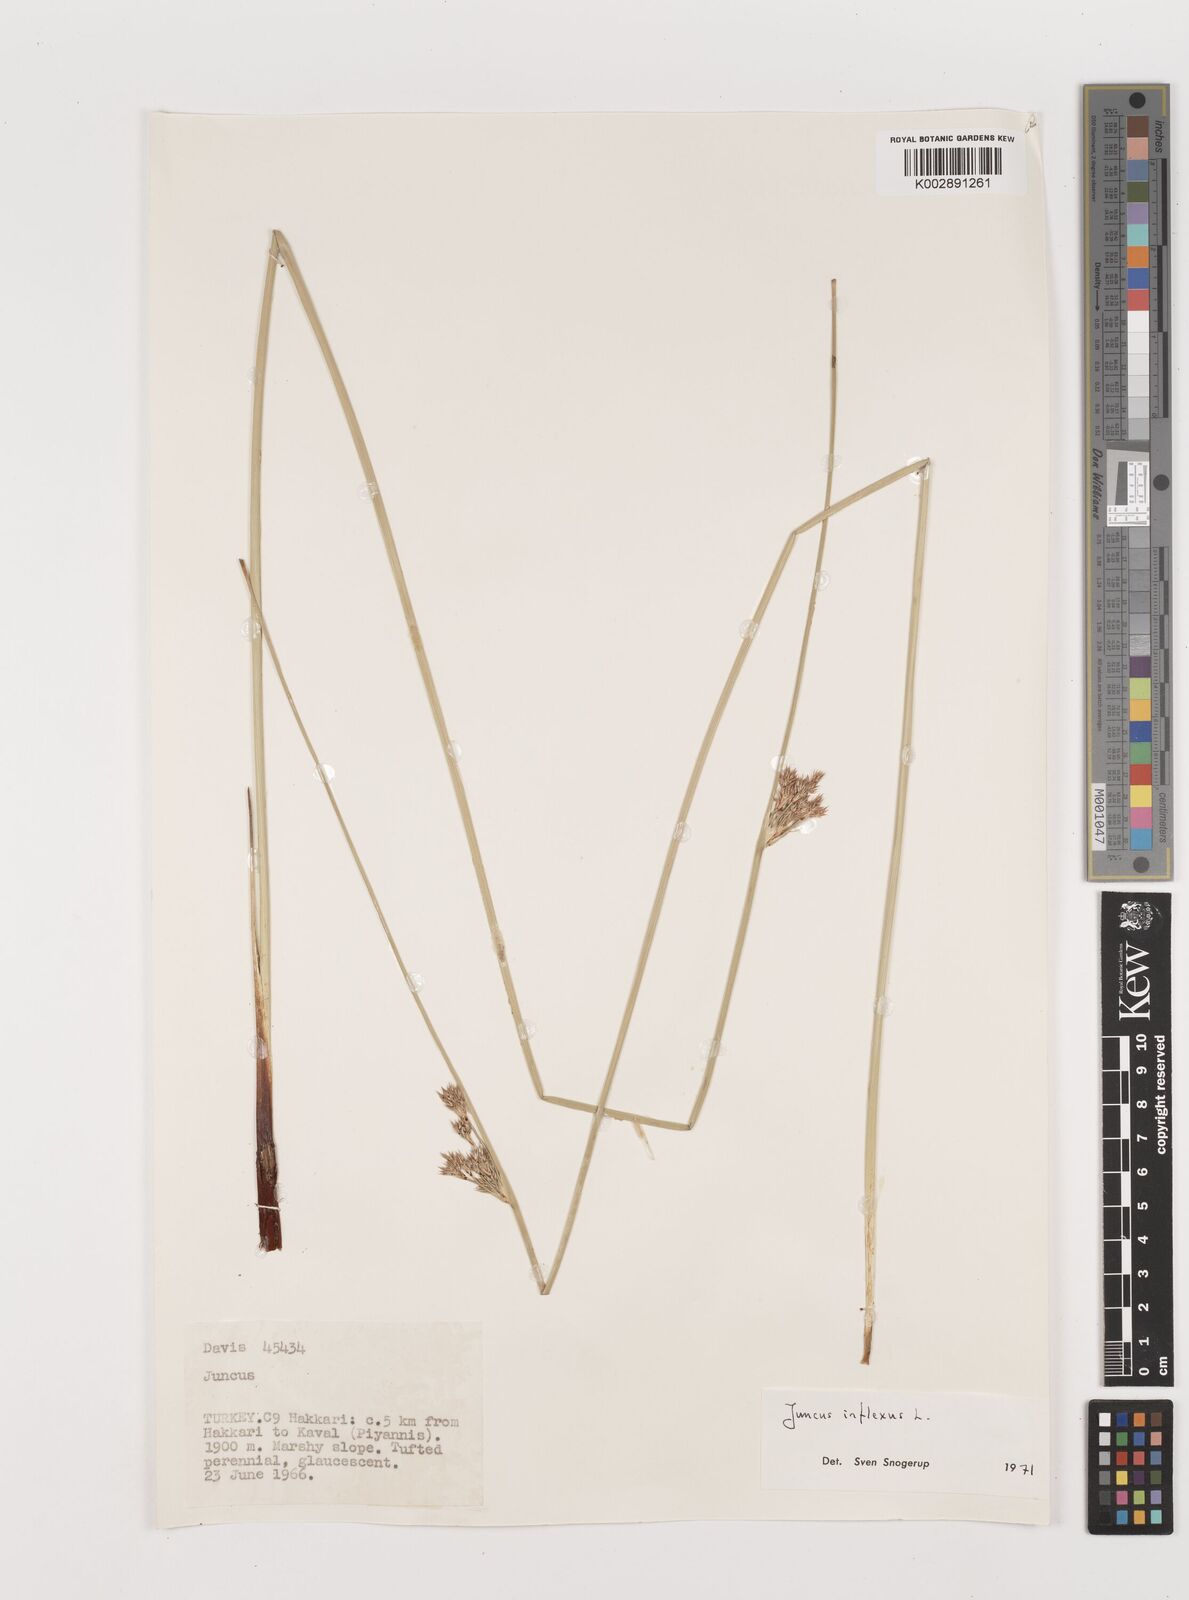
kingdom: Plantae
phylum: Tracheophyta
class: Liliopsida
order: Poales
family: Juncaceae
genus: Juncus
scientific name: Juncus inflexus
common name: Hard rush
